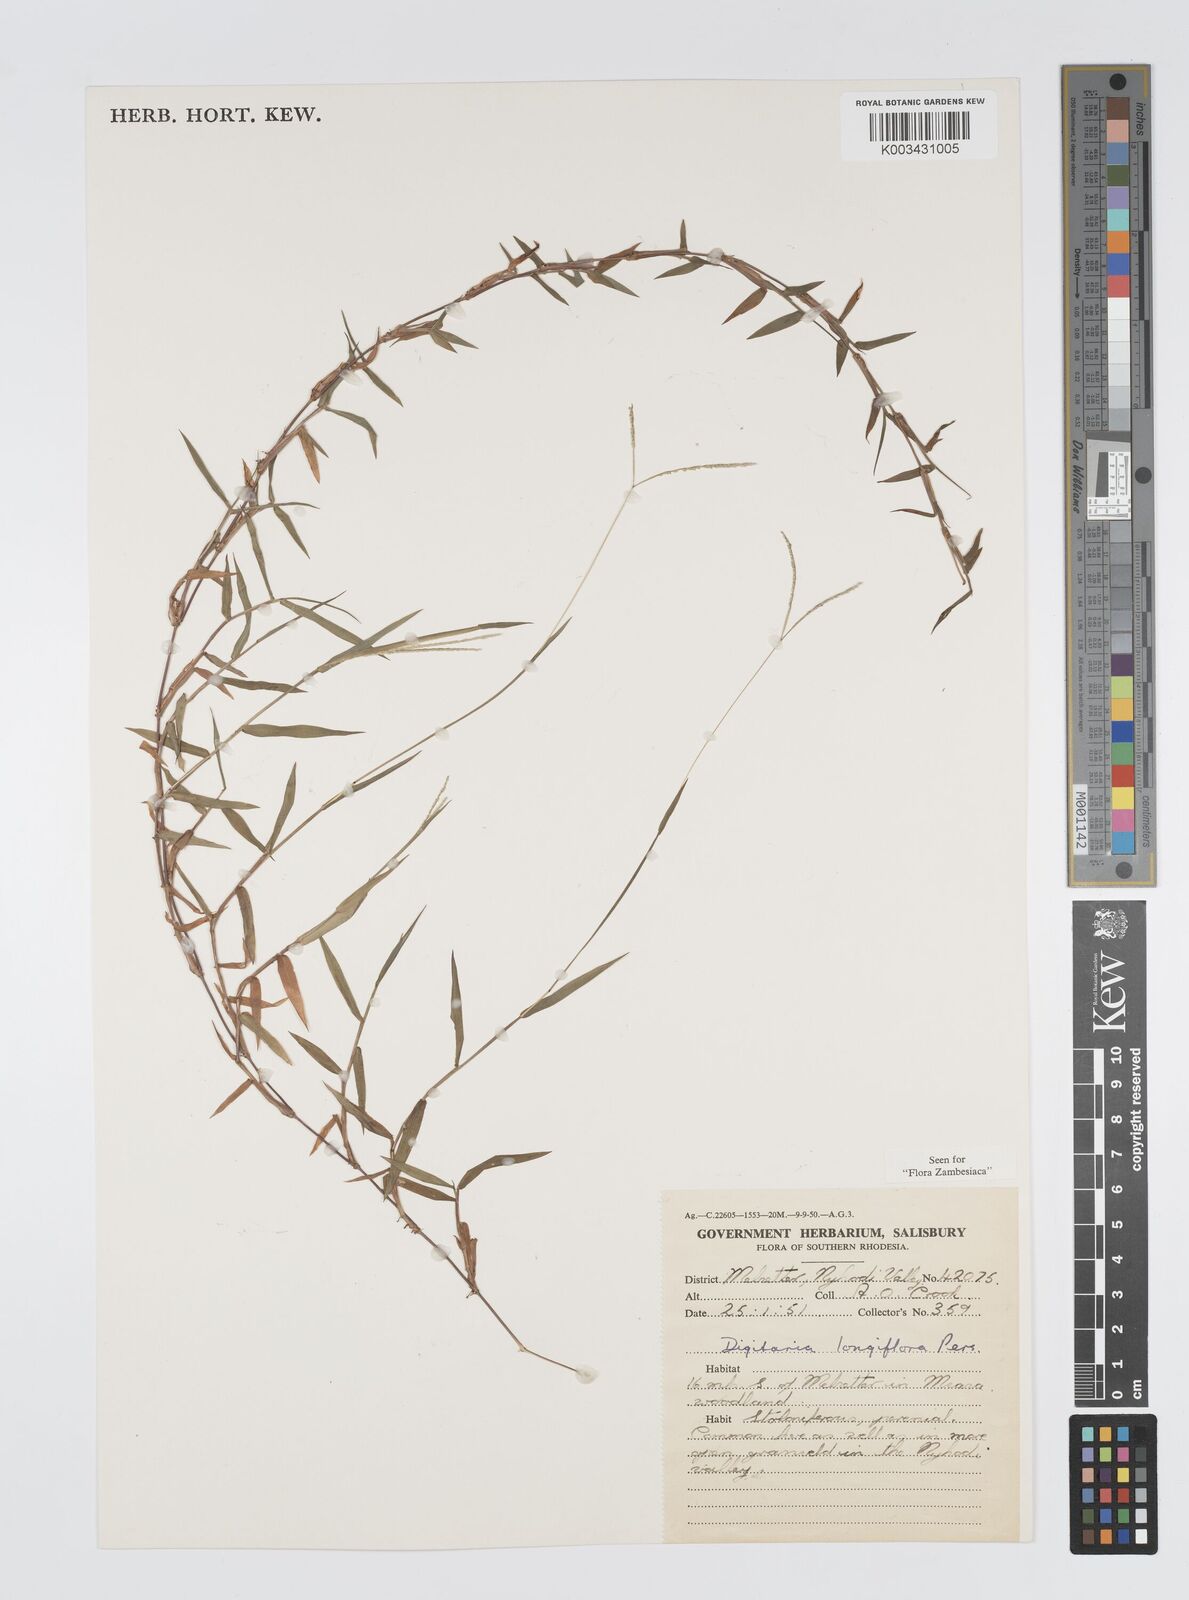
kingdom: Plantae
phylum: Tracheophyta
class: Liliopsida
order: Poales
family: Poaceae
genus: Digitaria
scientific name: Digitaria longiflora
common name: Wire crabgrass
